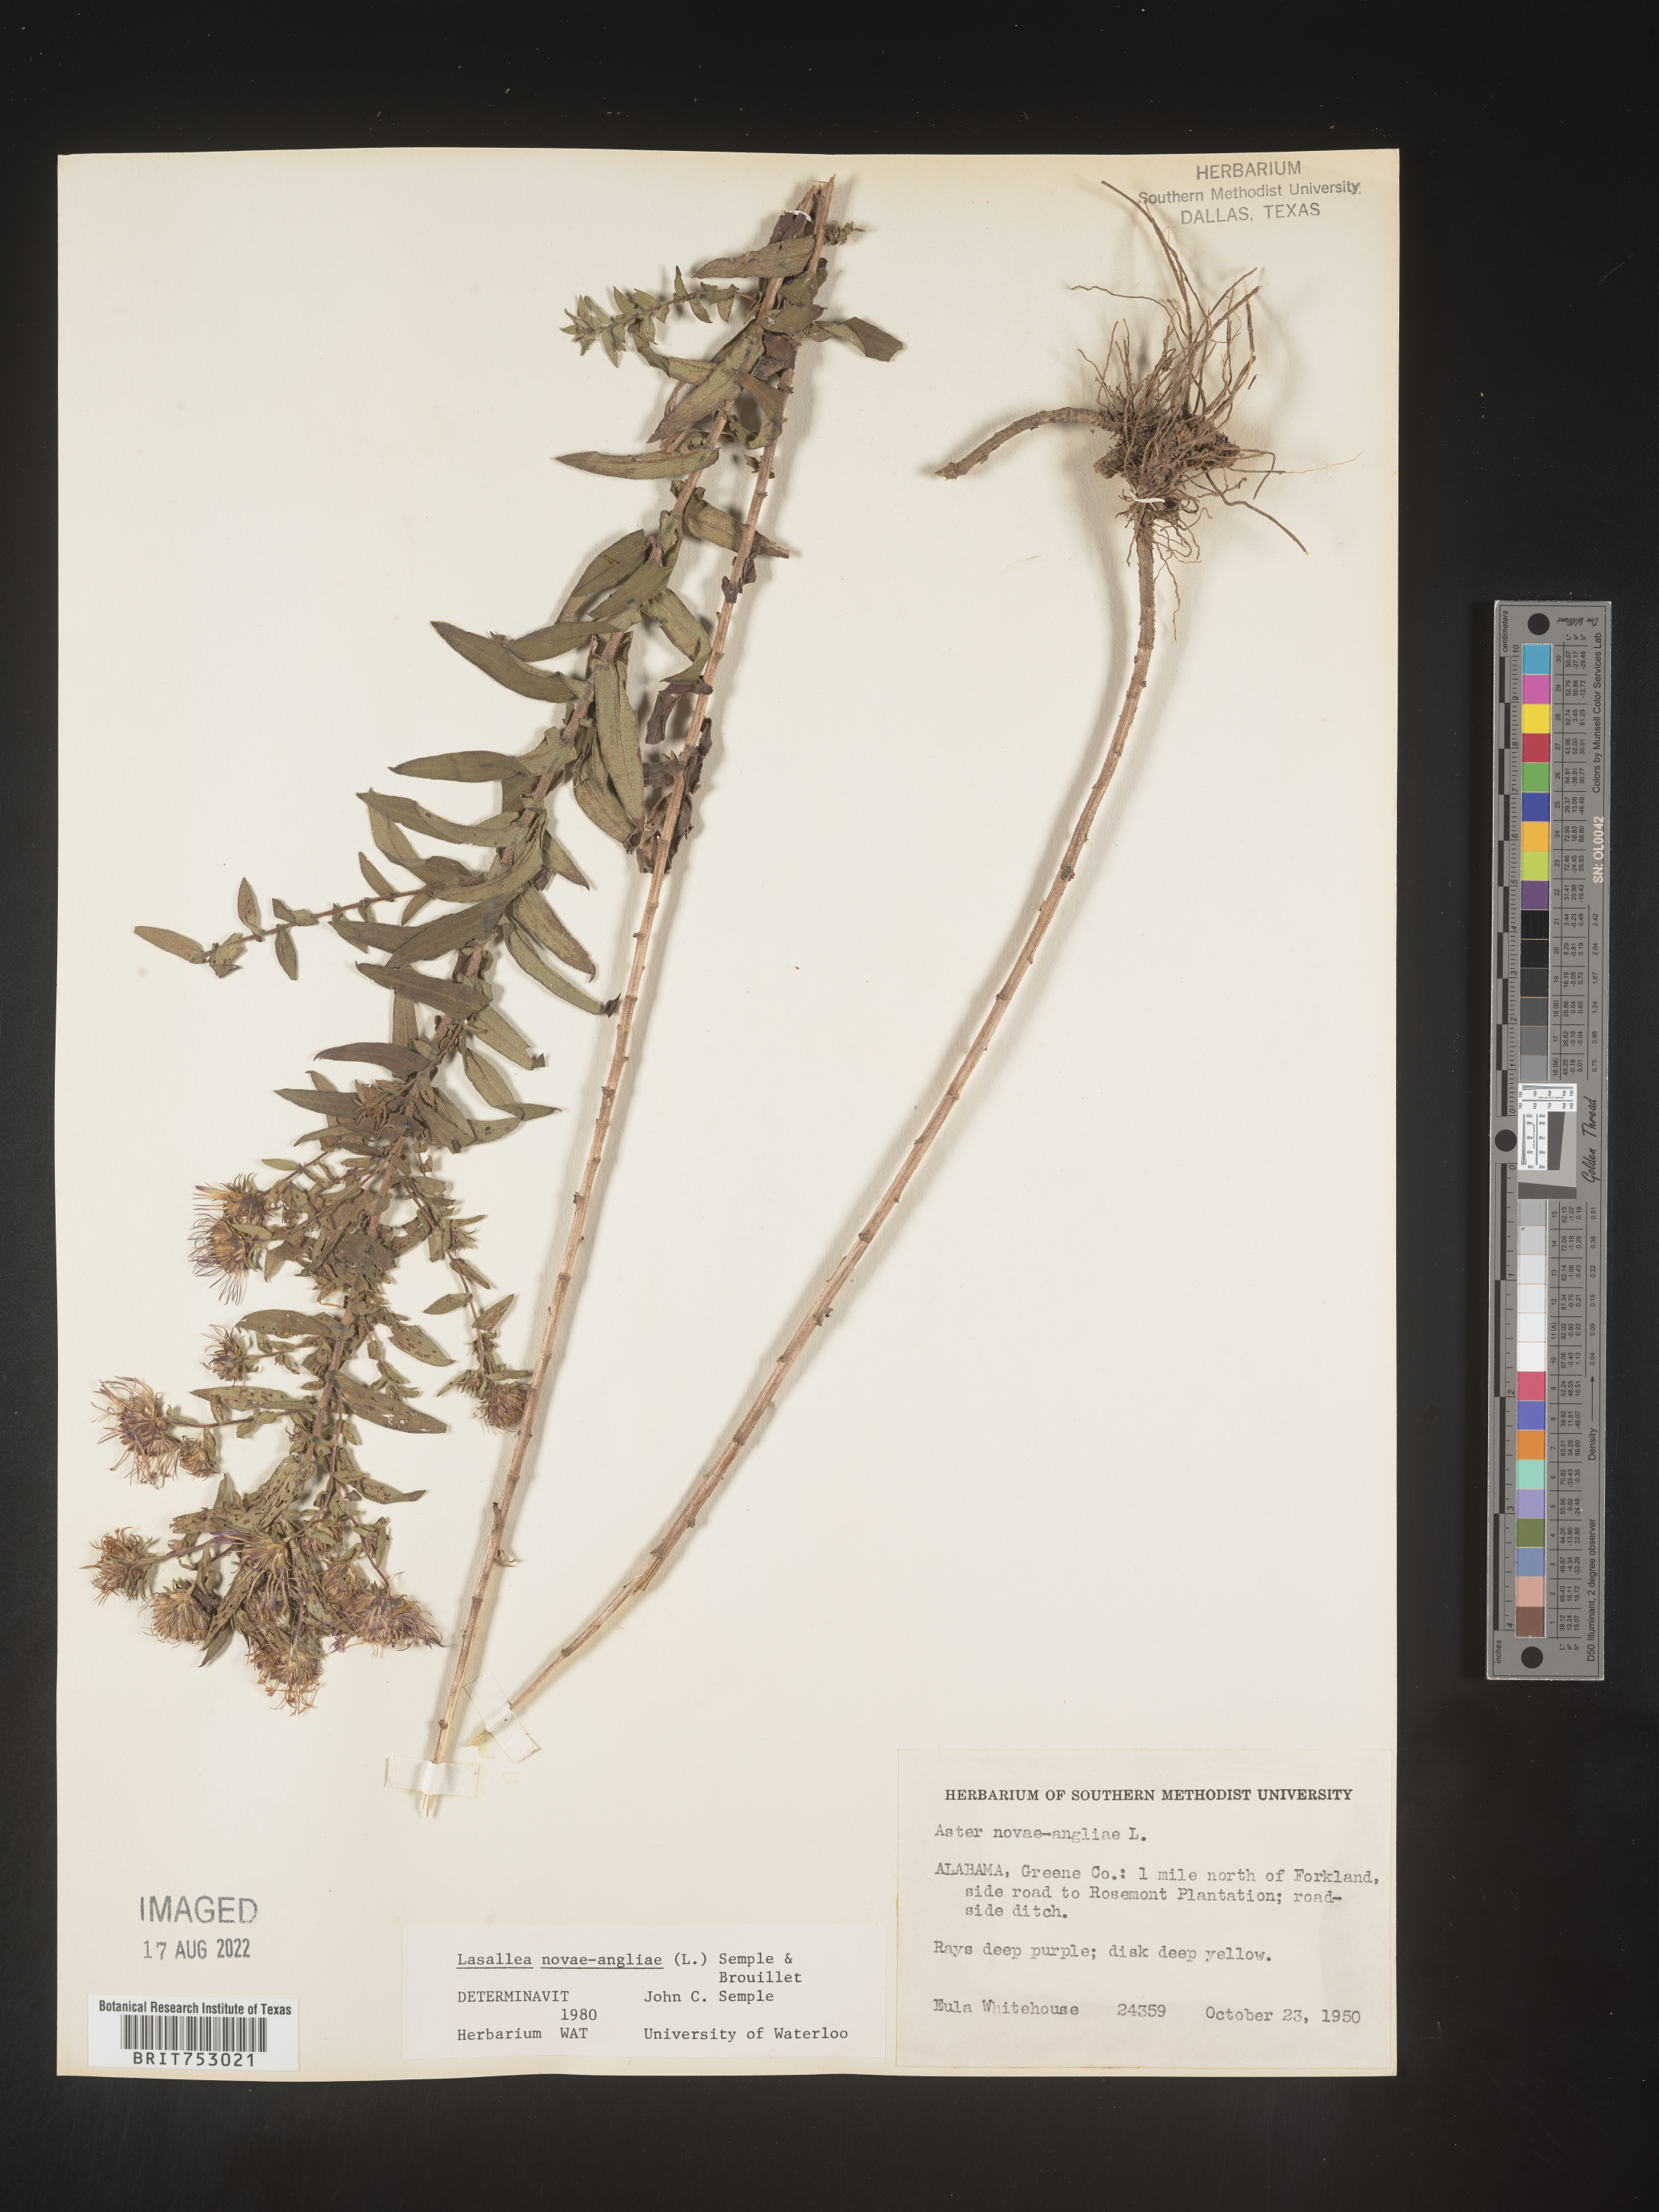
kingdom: Plantae
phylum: Tracheophyta
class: Magnoliopsida
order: Asterales
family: Asteraceae
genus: Symphyotrichum
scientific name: Symphyotrichum novae-angliae
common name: Michaelmas daisy
